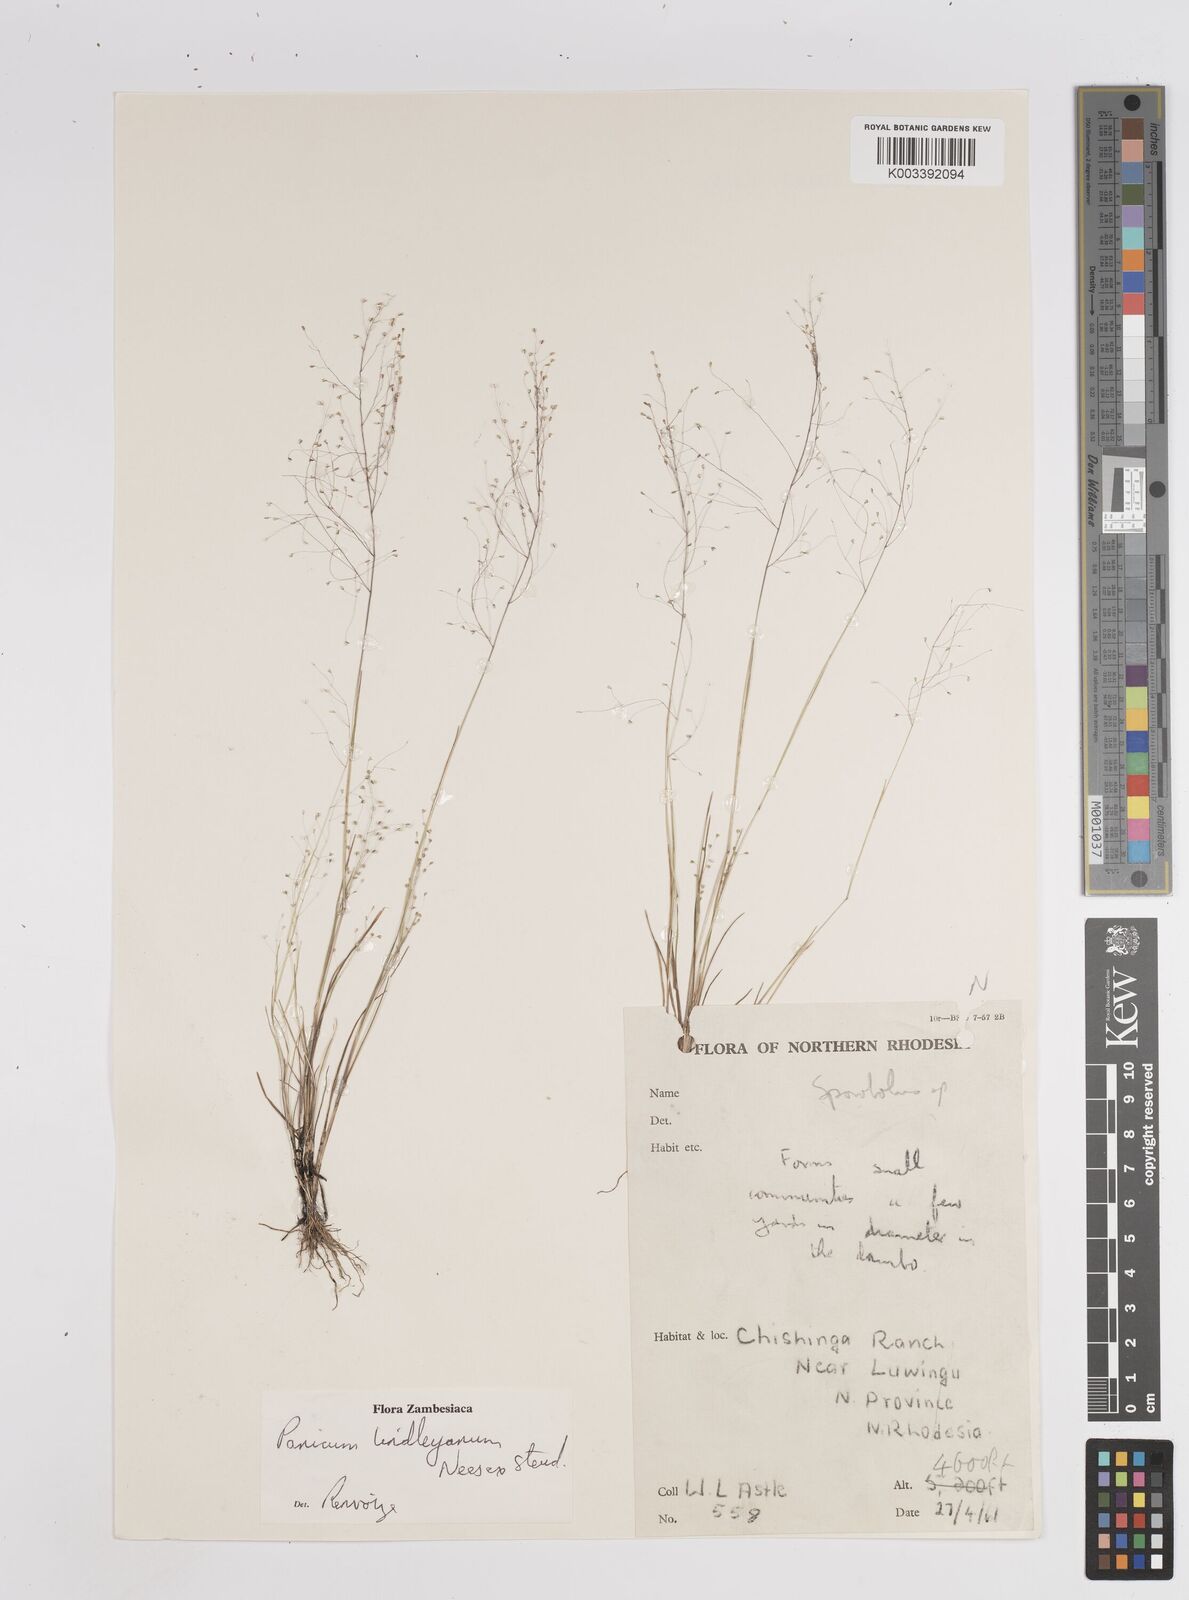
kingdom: Plantae
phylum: Tracheophyta
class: Liliopsida
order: Poales
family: Poaceae
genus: Trichanthecium
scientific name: Trichanthecium tenellum
